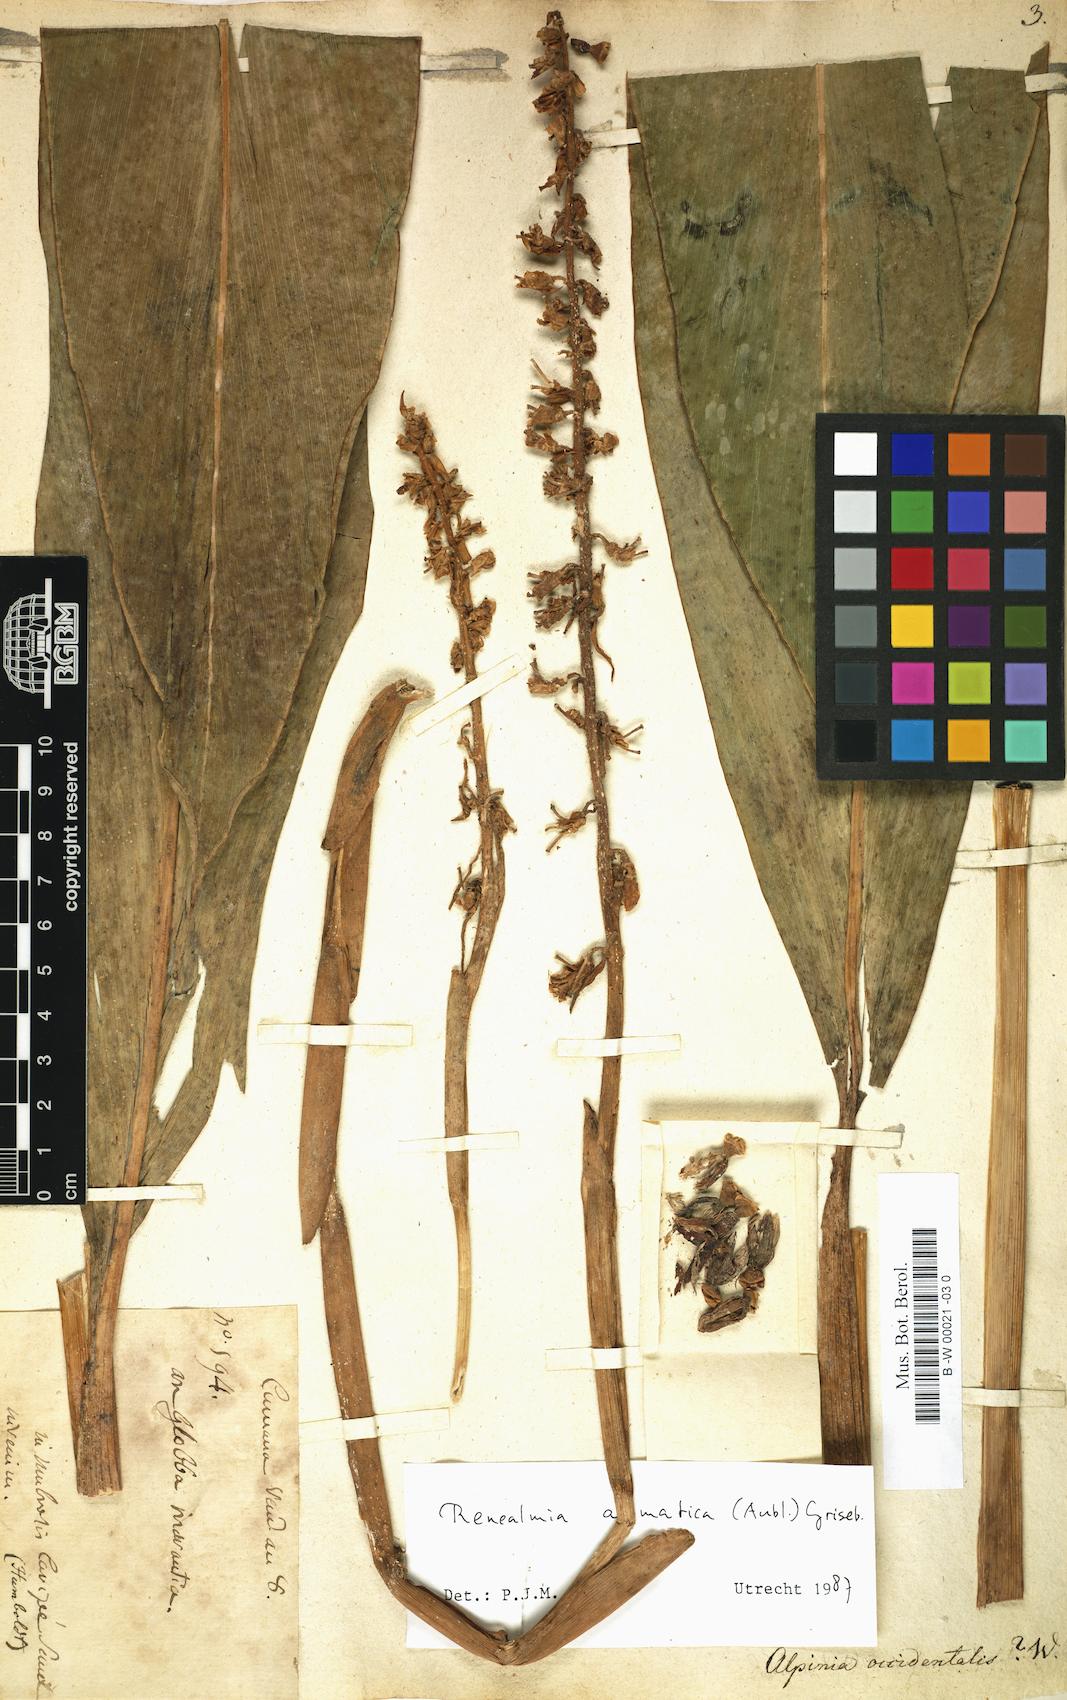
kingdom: Plantae
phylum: Tracheophyta
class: Liliopsida
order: Zingiberales
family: Zingiberaceae
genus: Renealmia
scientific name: Renealmia aromatica
